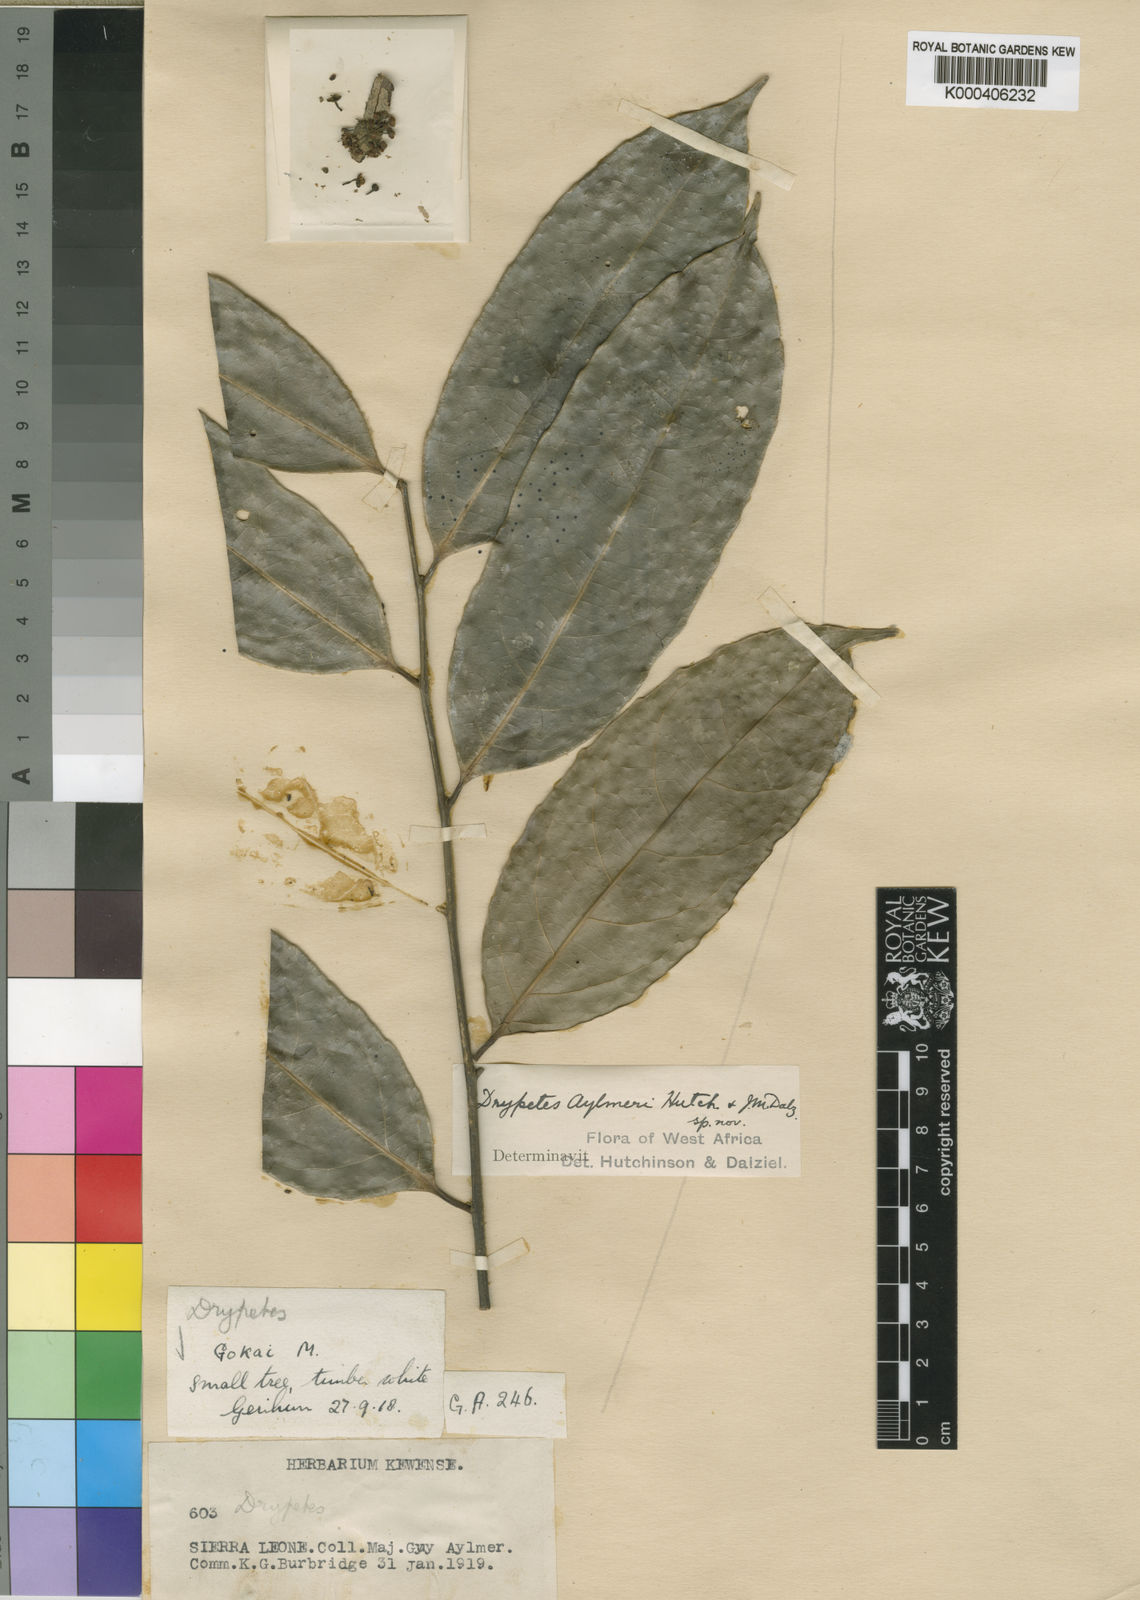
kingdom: Plantae
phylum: Tracheophyta
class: Magnoliopsida
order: Malpighiales
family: Putranjivaceae
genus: Drypetes
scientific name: Drypetes aylmeri
